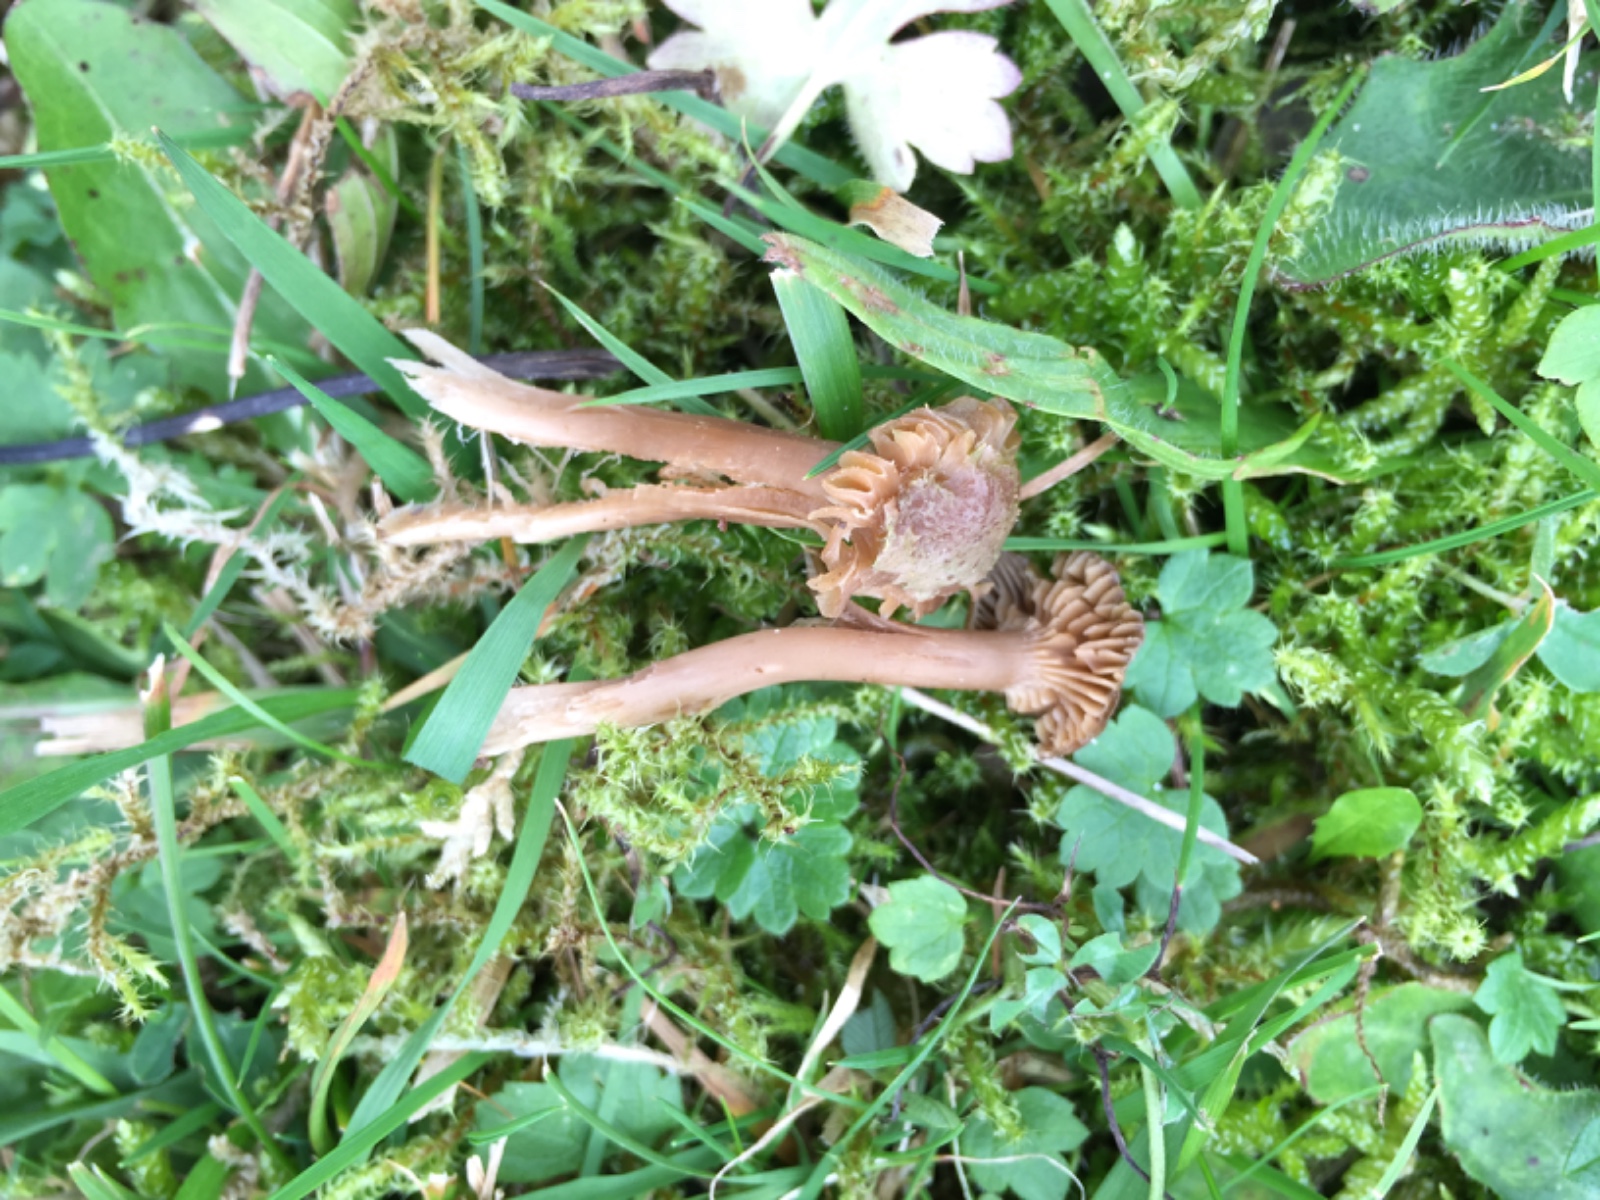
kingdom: Fungi
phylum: Basidiomycota
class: Agaricomycetes
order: Agaricales
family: Clavariaceae
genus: Camarophyllopsis
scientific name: Camarophyllopsis schulzeri
